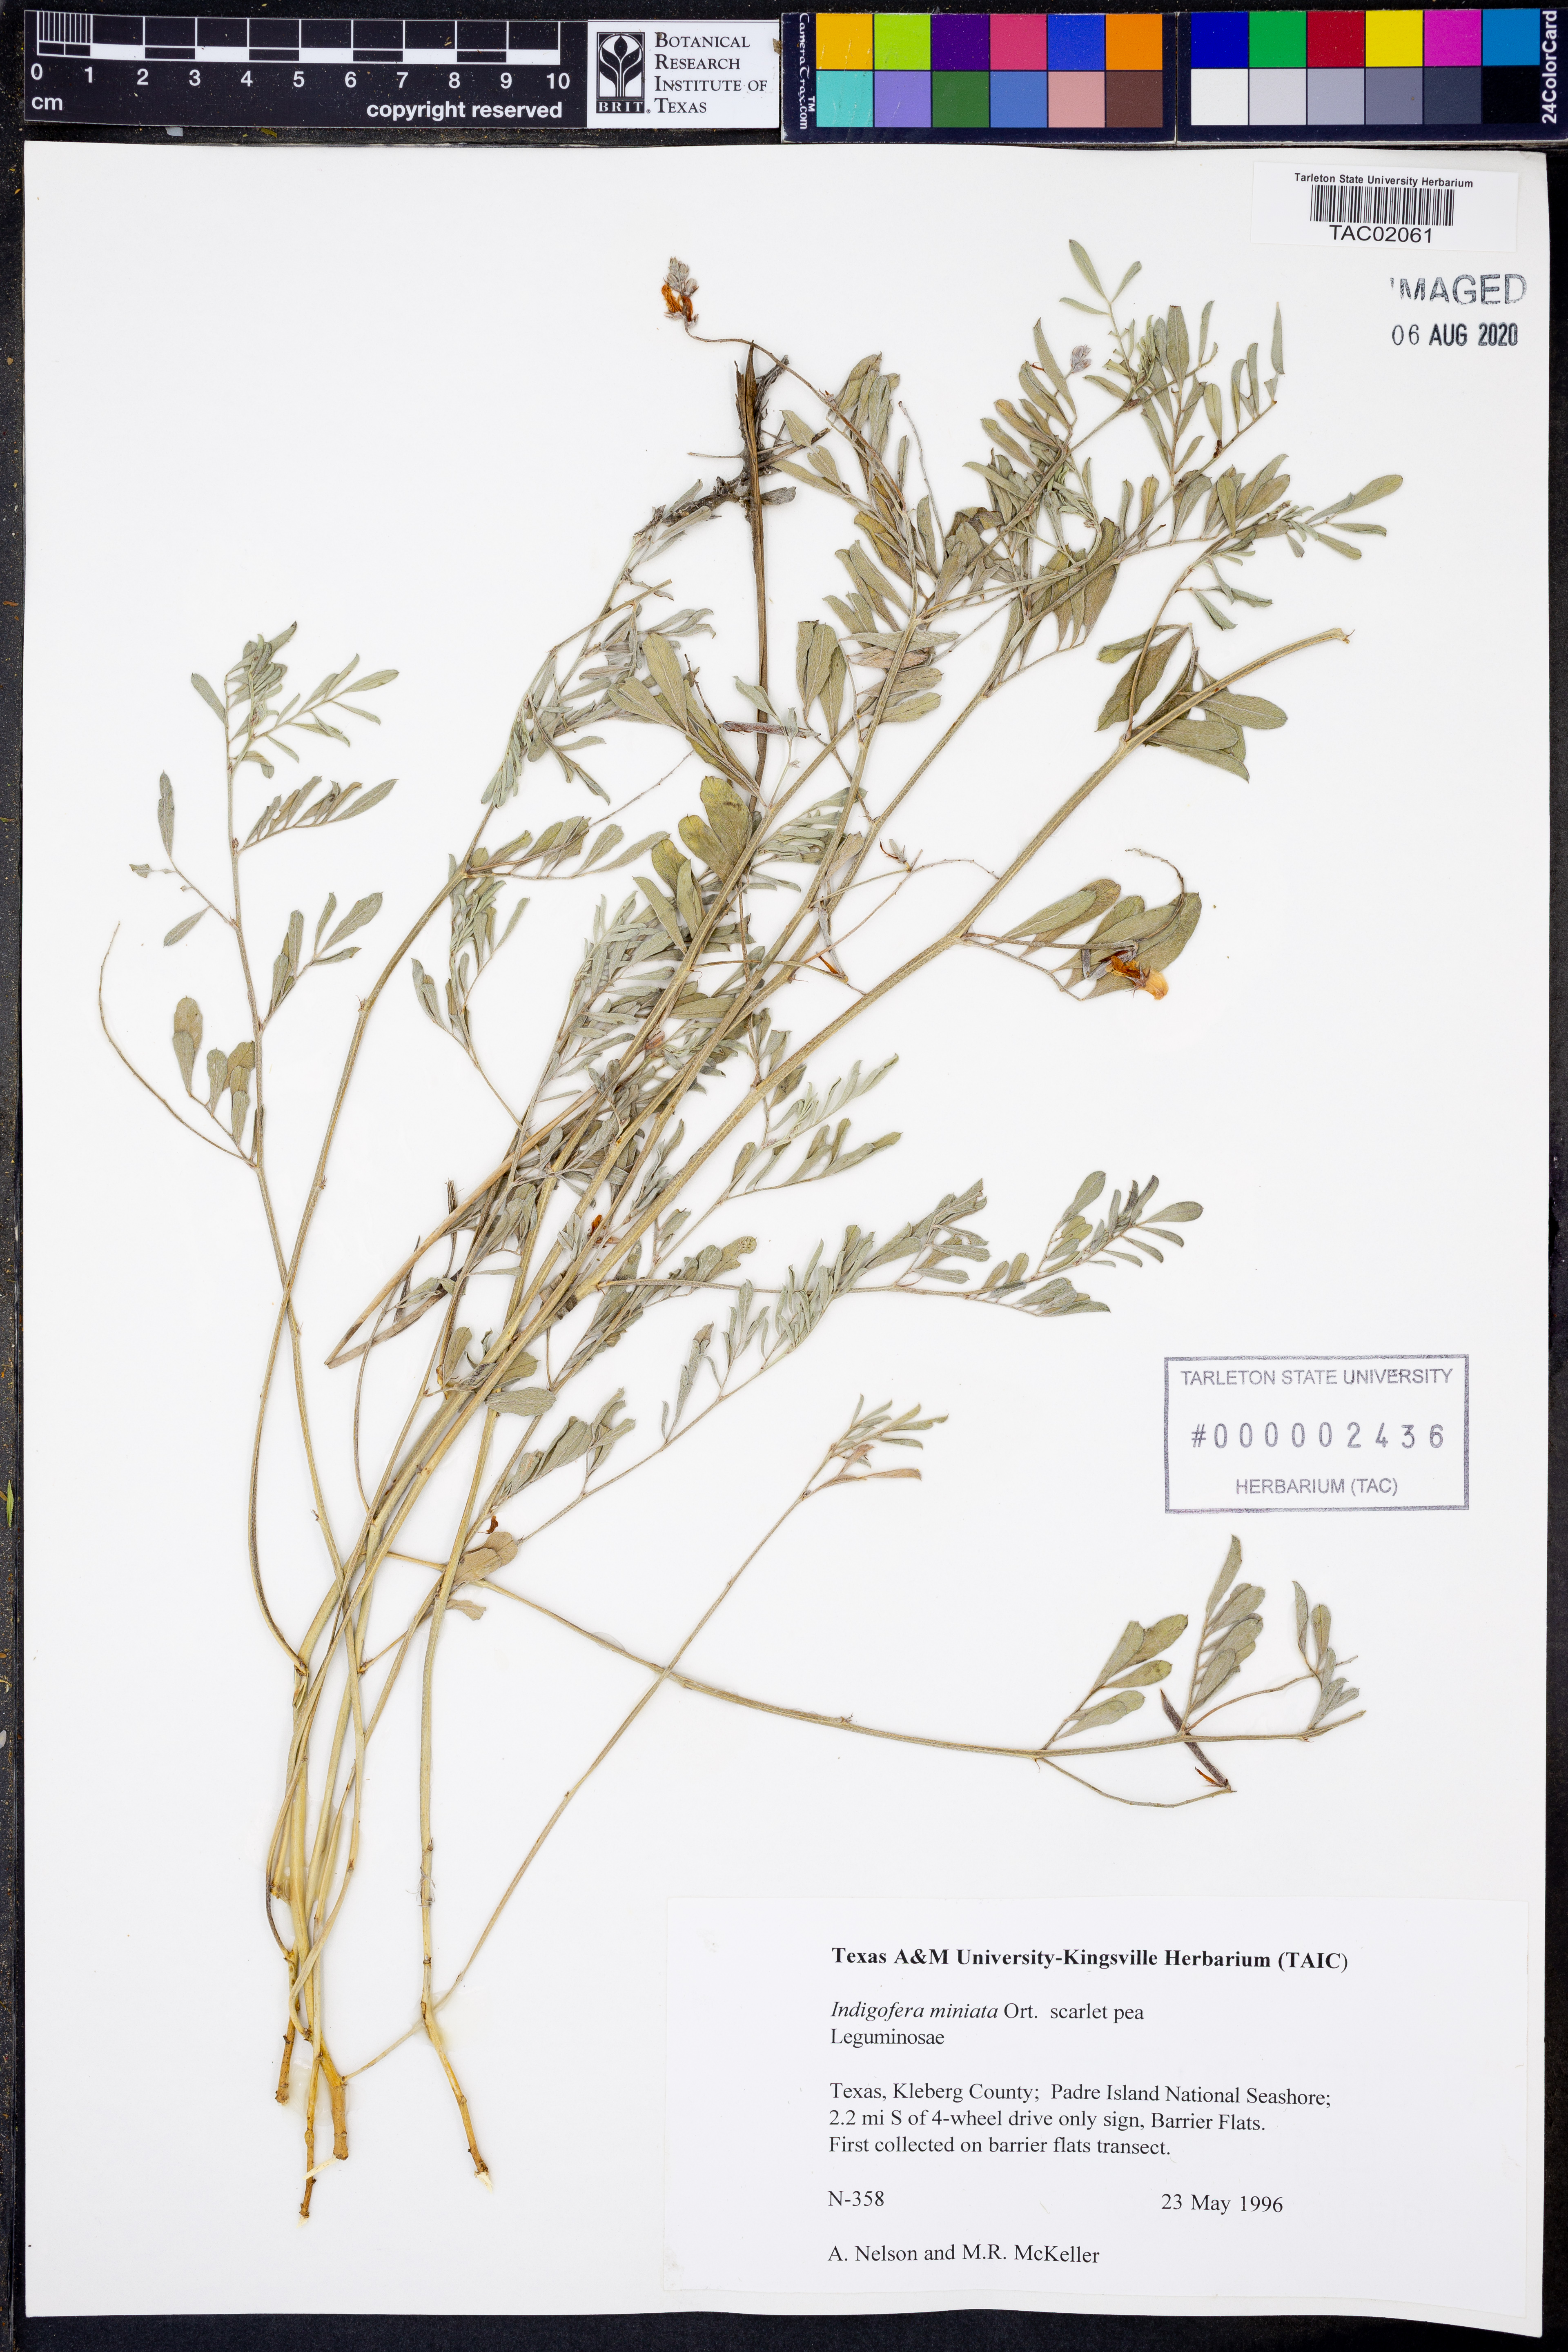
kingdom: Plantae
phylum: Tracheophyta
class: Magnoliopsida
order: Fabales
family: Fabaceae
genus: Indigofera
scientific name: Indigofera miniata
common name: Coast indigo
